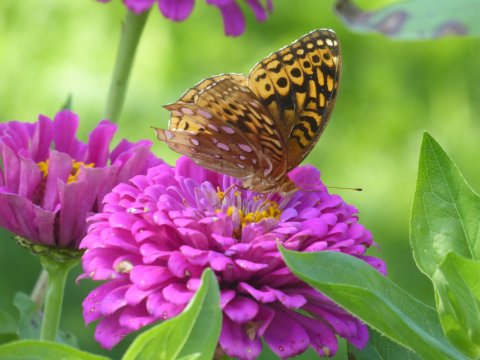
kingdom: Animalia
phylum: Arthropoda
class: Insecta
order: Lepidoptera
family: Nymphalidae
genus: Speyeria
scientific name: Speyeria cybele
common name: Great Spangled Fritillary
